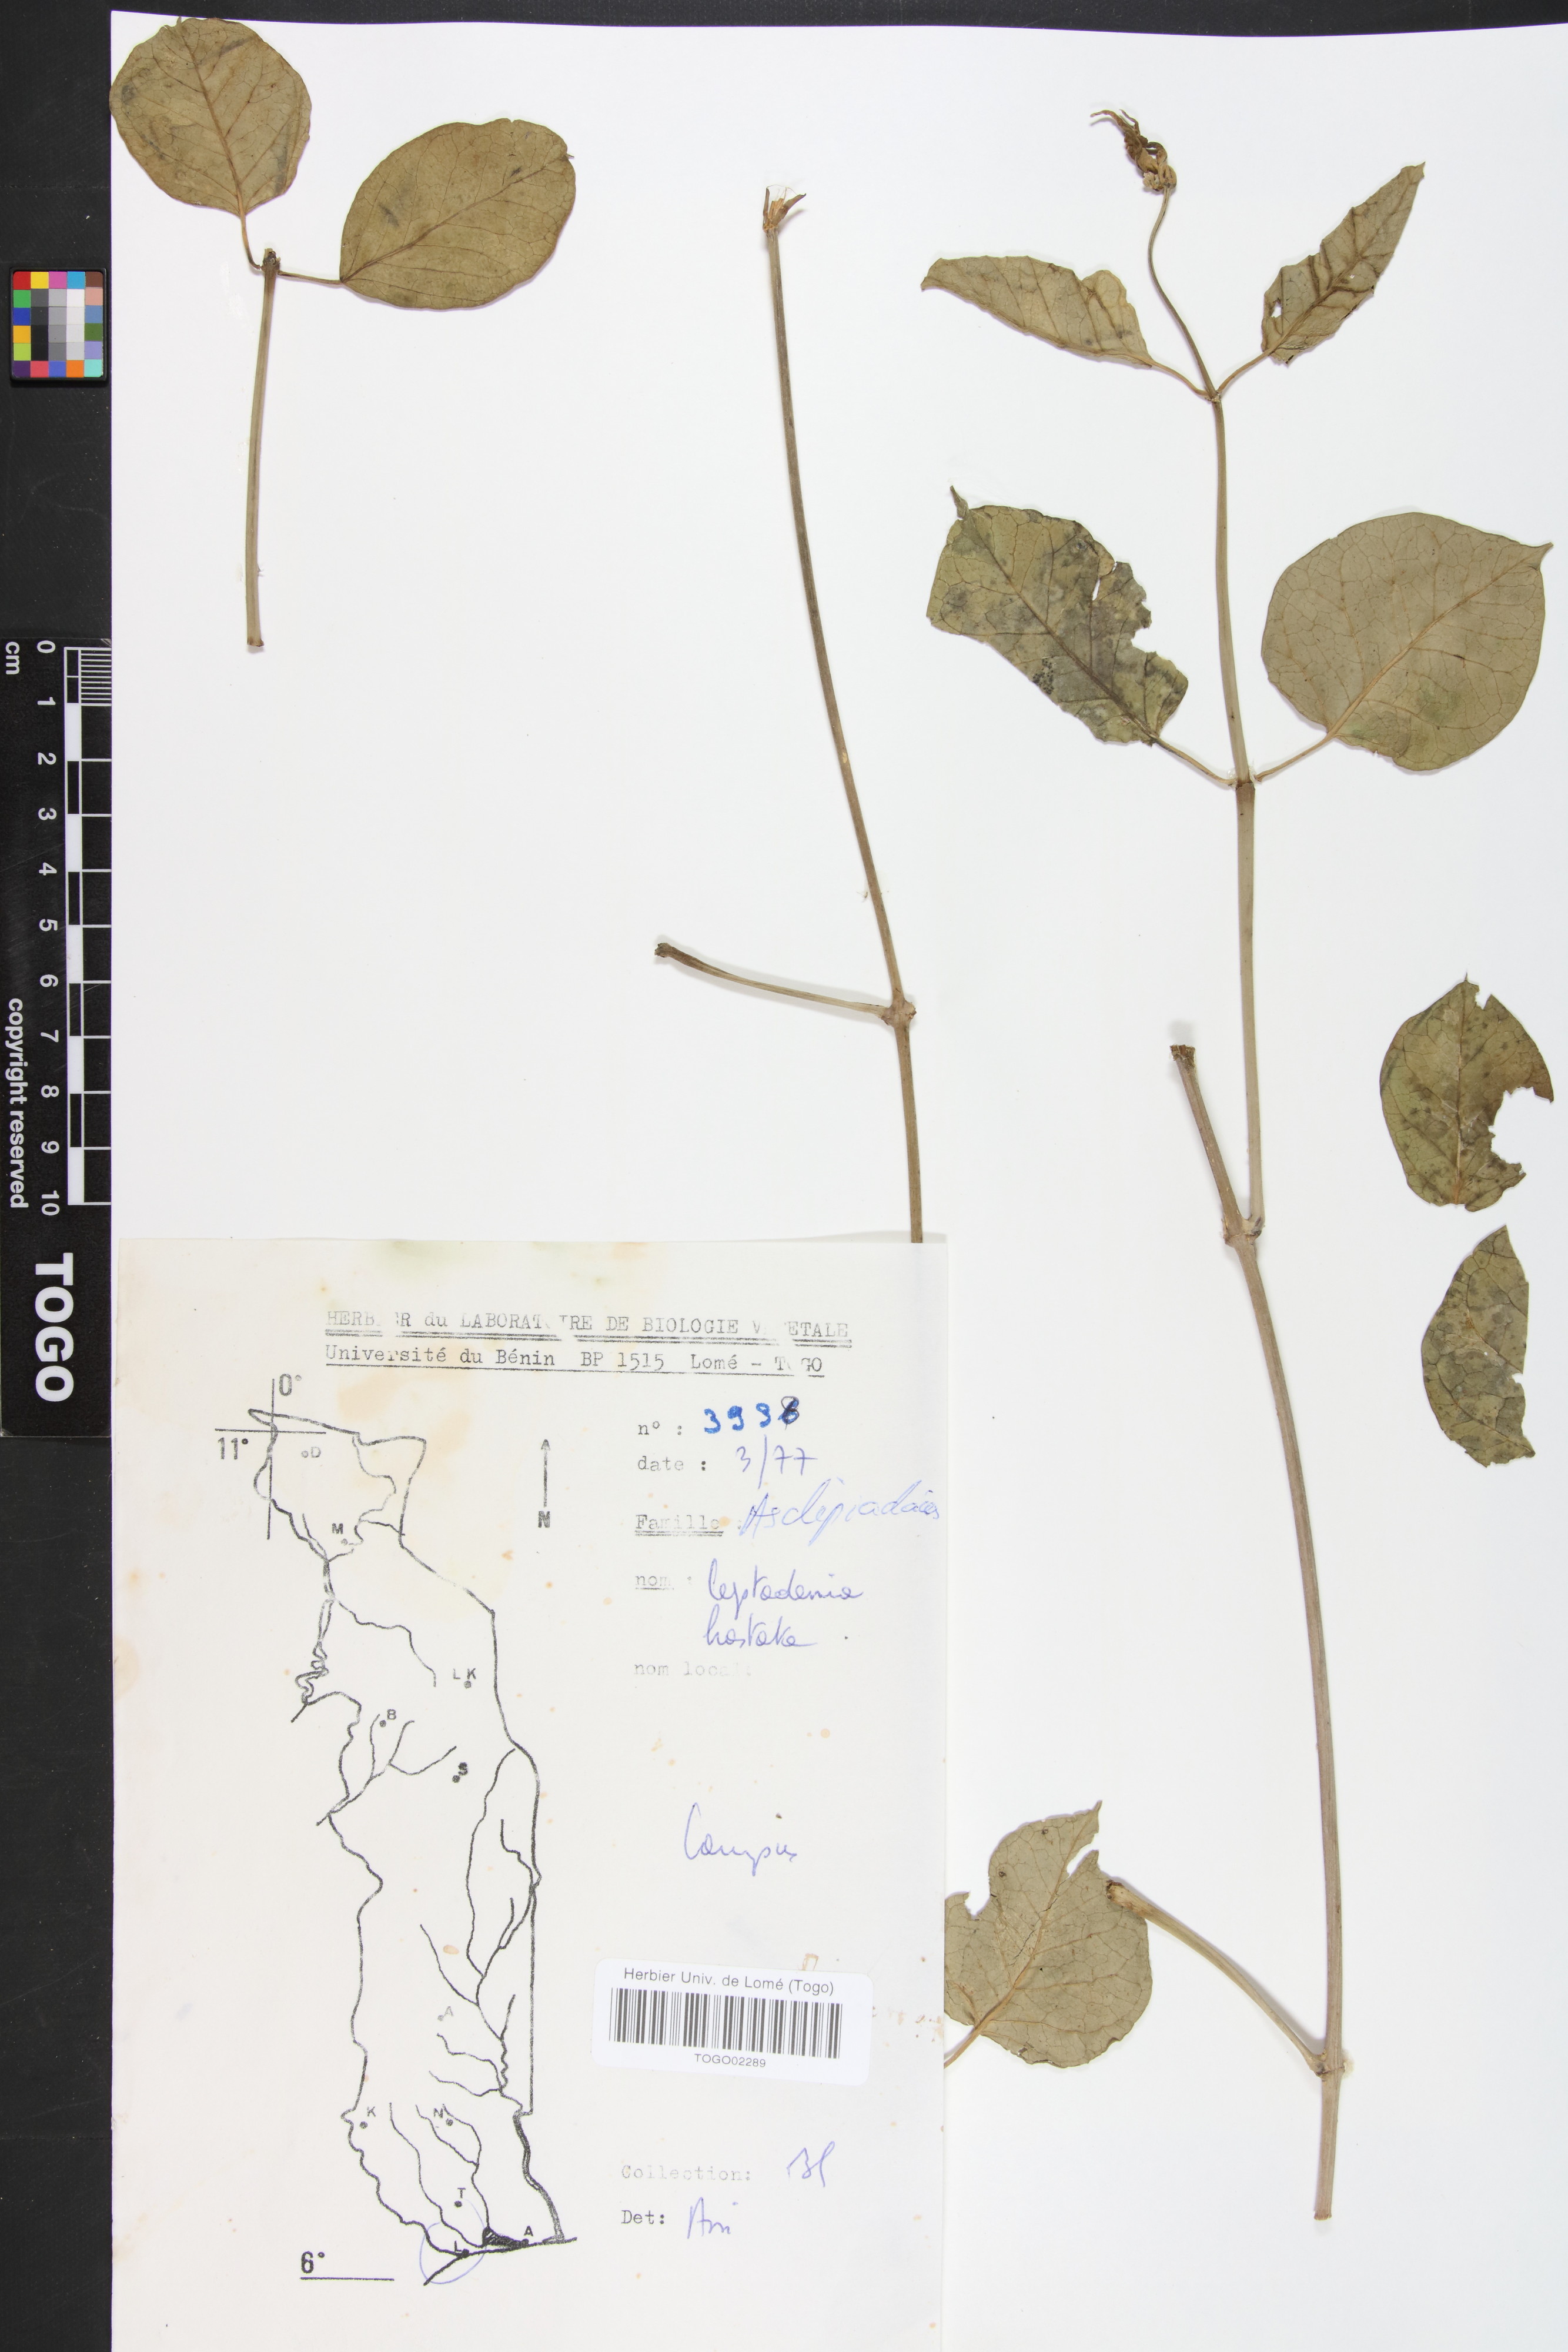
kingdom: Plantae
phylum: Tracheophyta
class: Magnoliopsida
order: Gentianales
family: Apocynaceae
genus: Leptadenia
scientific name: Leptadenia lanceolata
